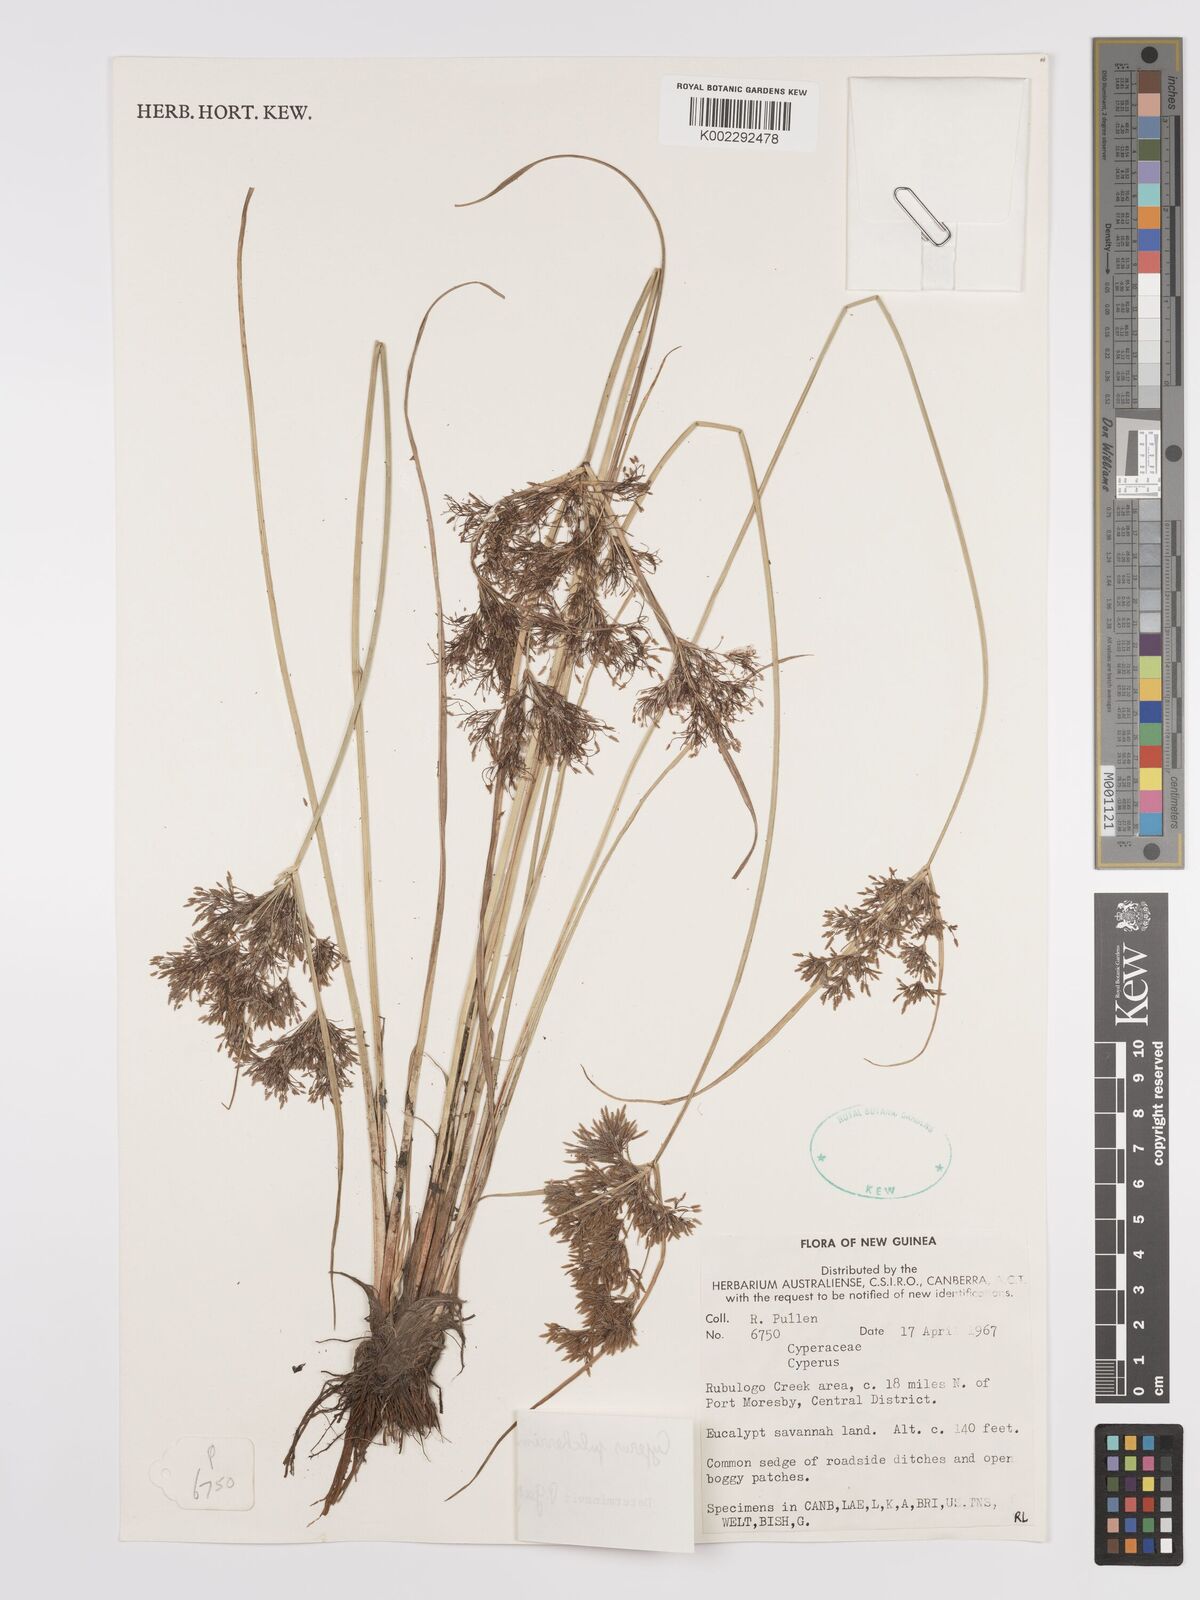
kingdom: Plantae
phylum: Tracheophyta
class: Liliopsida
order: Poales
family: Cyperaceae
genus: Cyperus
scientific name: Cyperus pulcherrimus
